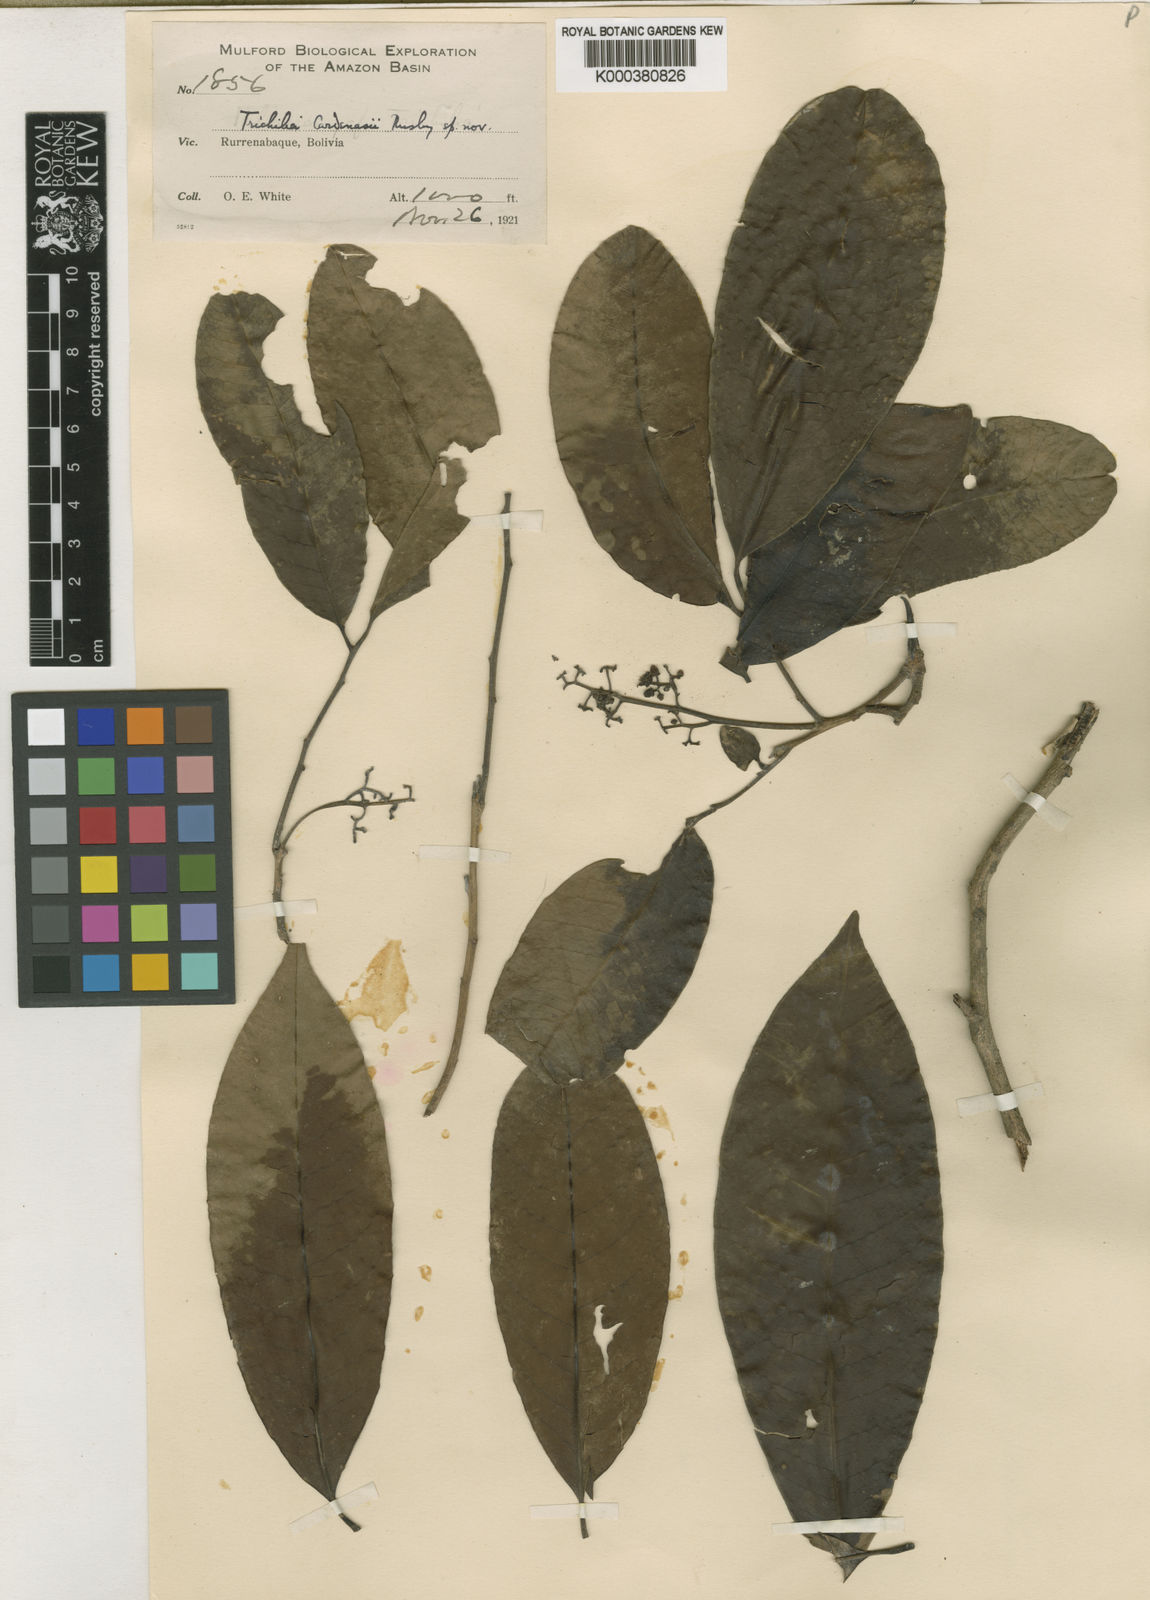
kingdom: Plantae
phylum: Tracheophyta
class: Magnoliopsida
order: Sapindales
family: Meliaceae
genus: Trichilia
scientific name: Trichilia pleeana
